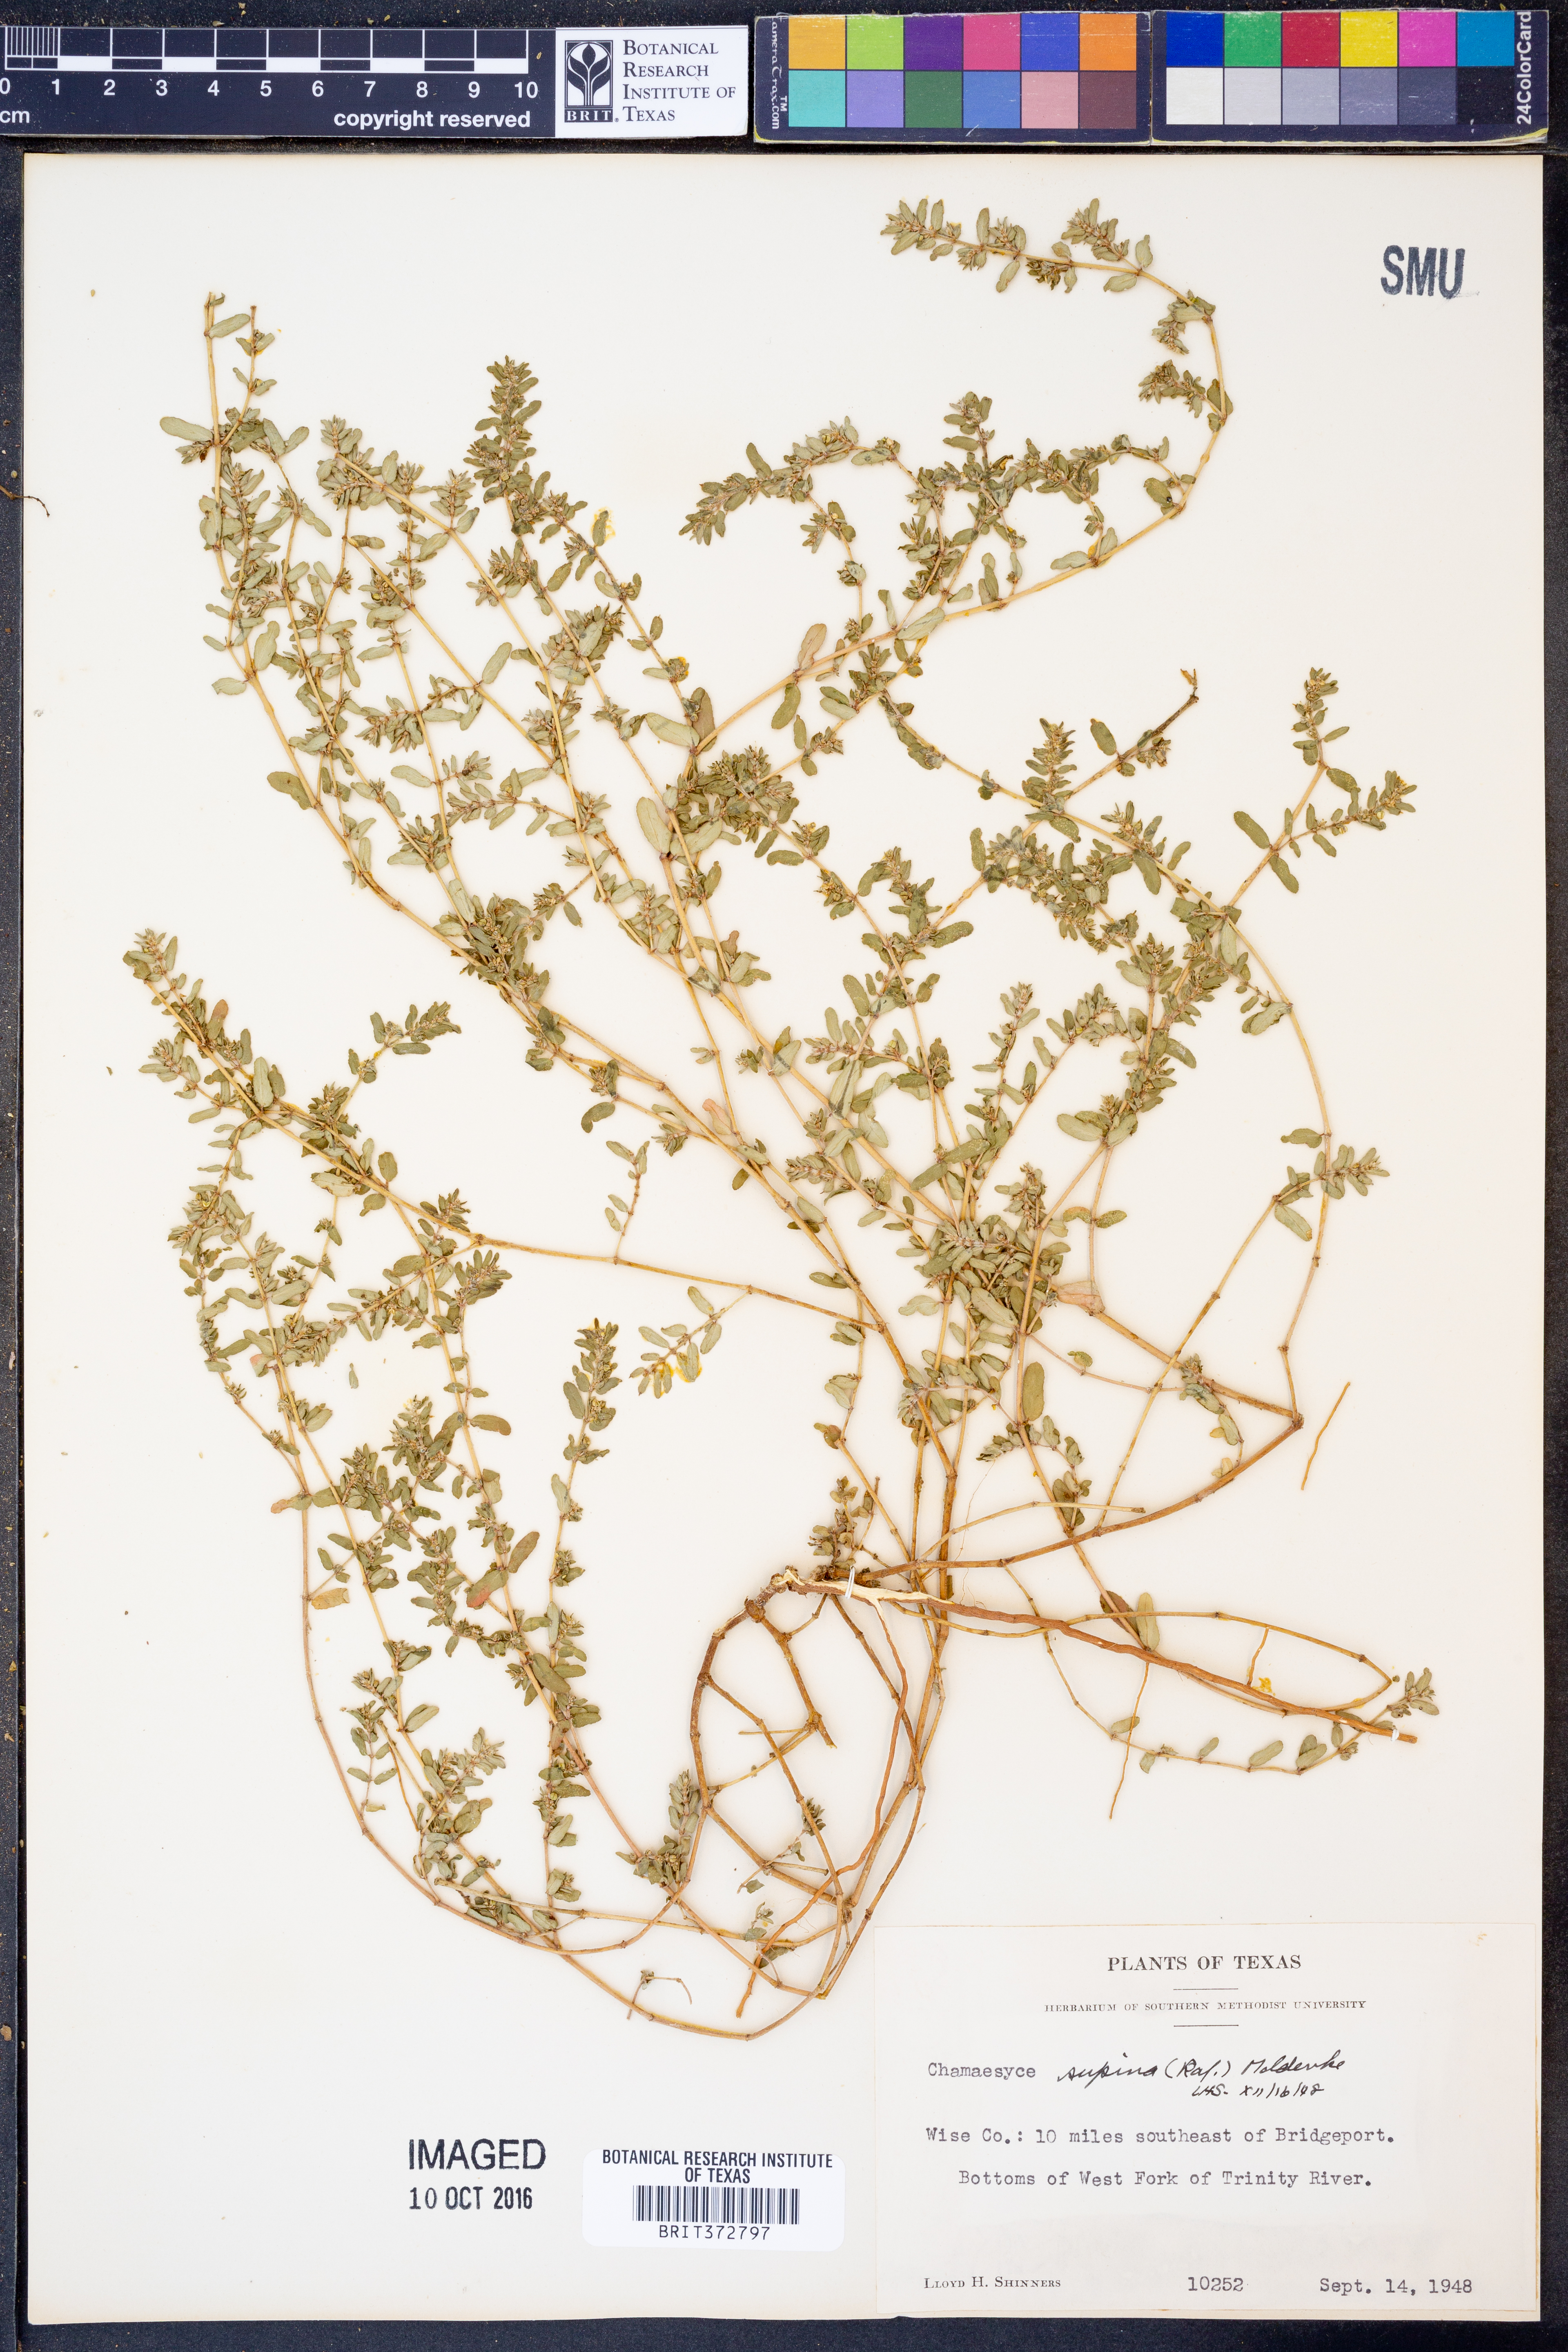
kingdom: Plantae
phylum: Tracheophyta
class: Magnoliopsida
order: Malpighiales
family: Euphorbiaceae
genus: Euphorbia
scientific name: Euphorbia maculata
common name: Spotted spurge
